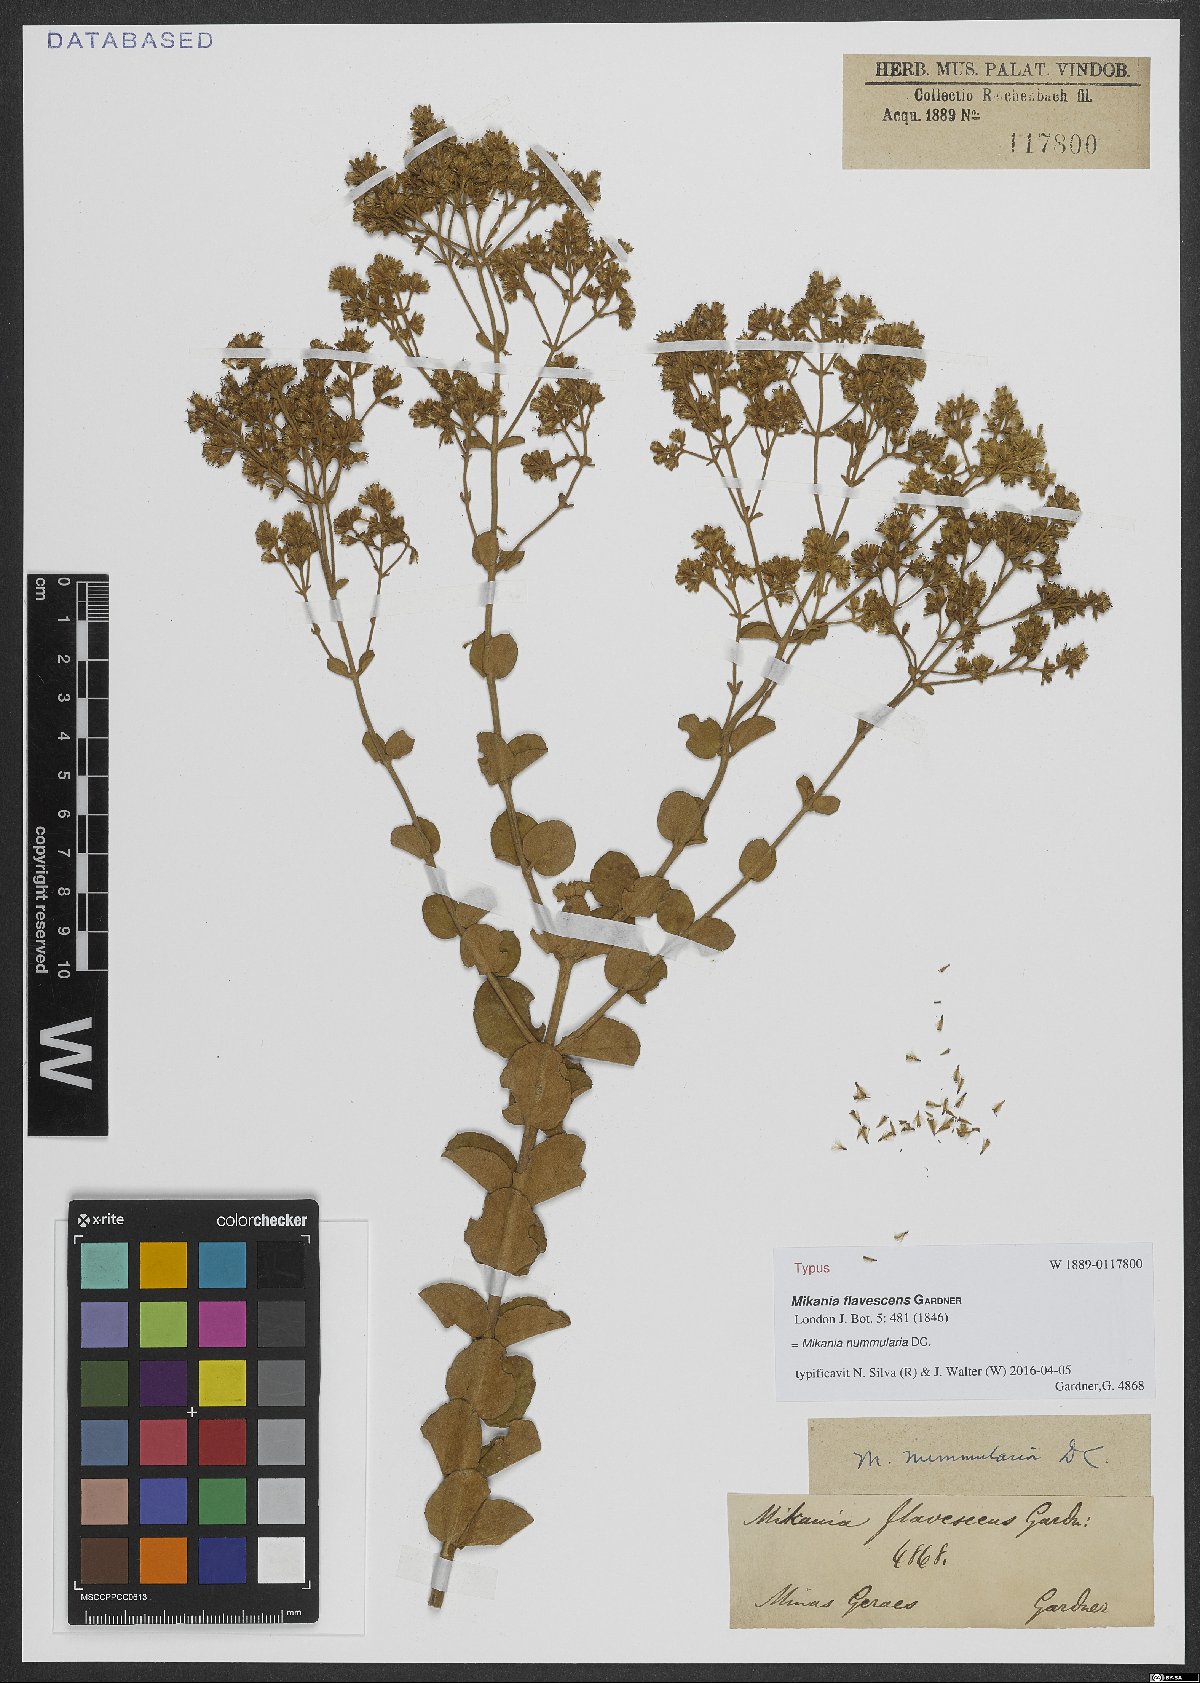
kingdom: Plantae
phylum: Tracheophyta
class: Magnoliopsida
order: Asterales
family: Asteraceae
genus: Mikania
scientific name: Mikania nummularia
